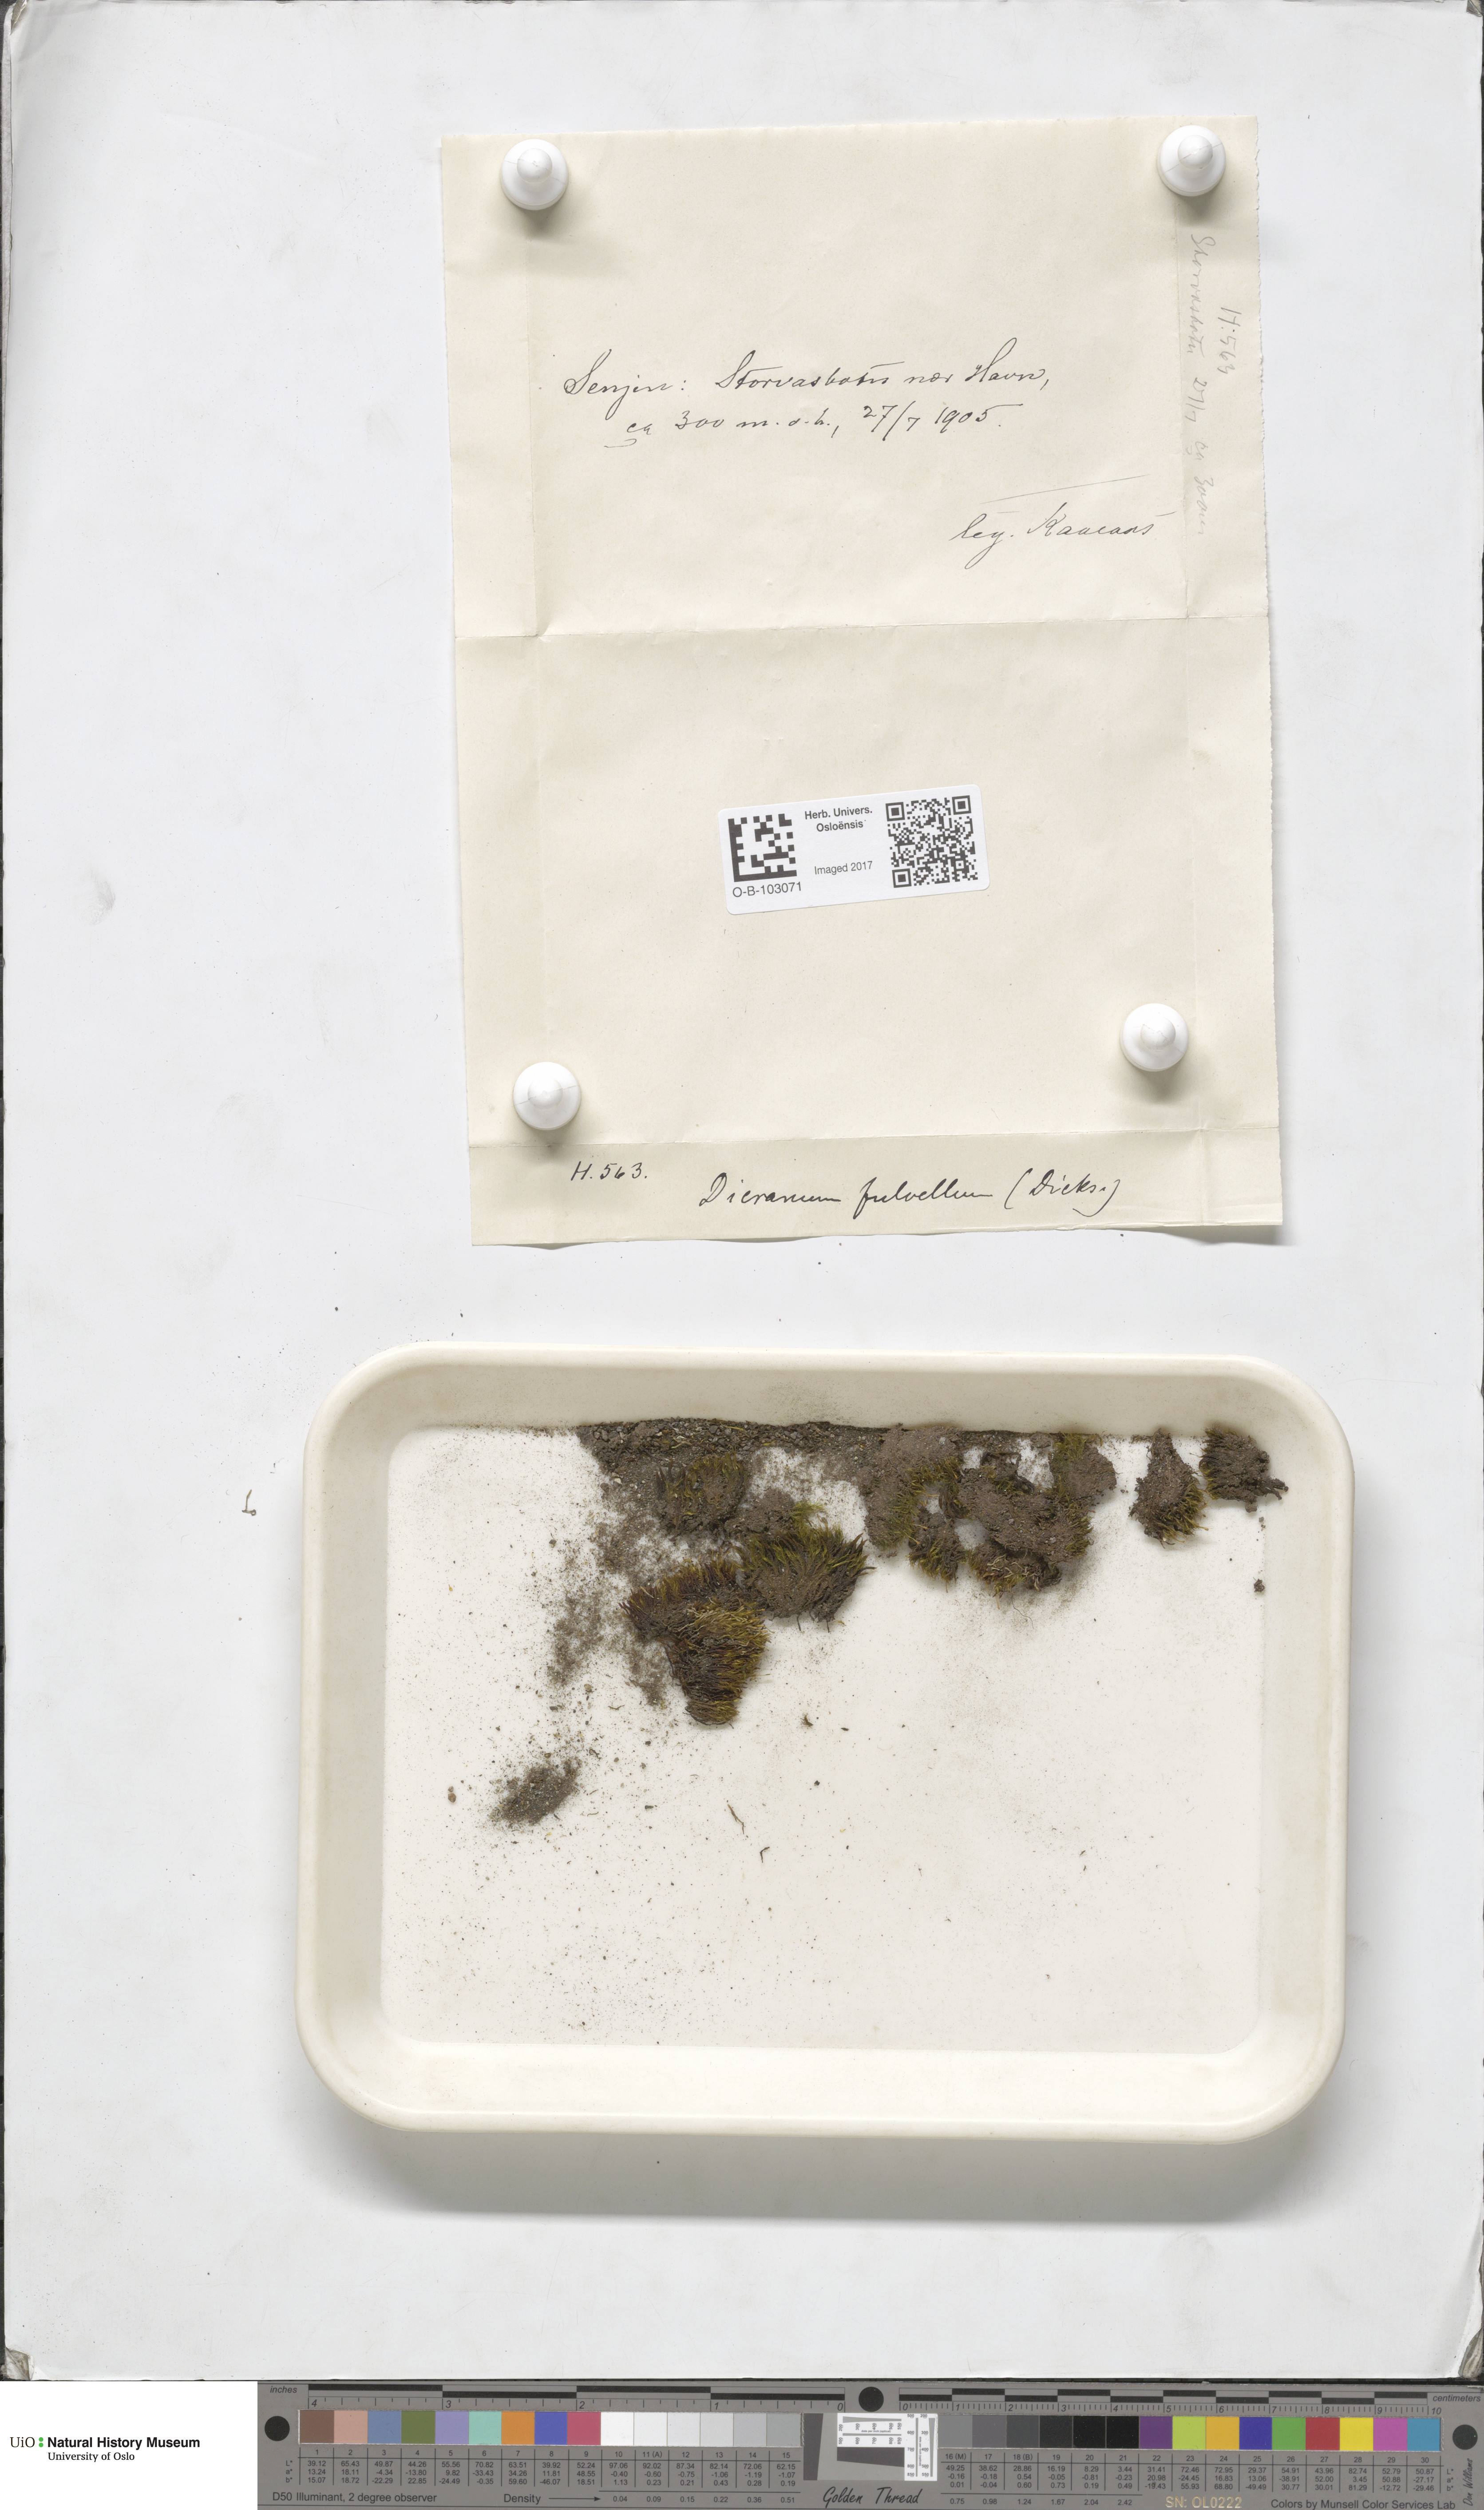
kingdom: Plantae
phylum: Bryophyta
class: Bryopsida
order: Dicranales
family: Rhabdoweisiaceae
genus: Arctoa
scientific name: Arctoa fulvella
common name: Tawny fork moss
